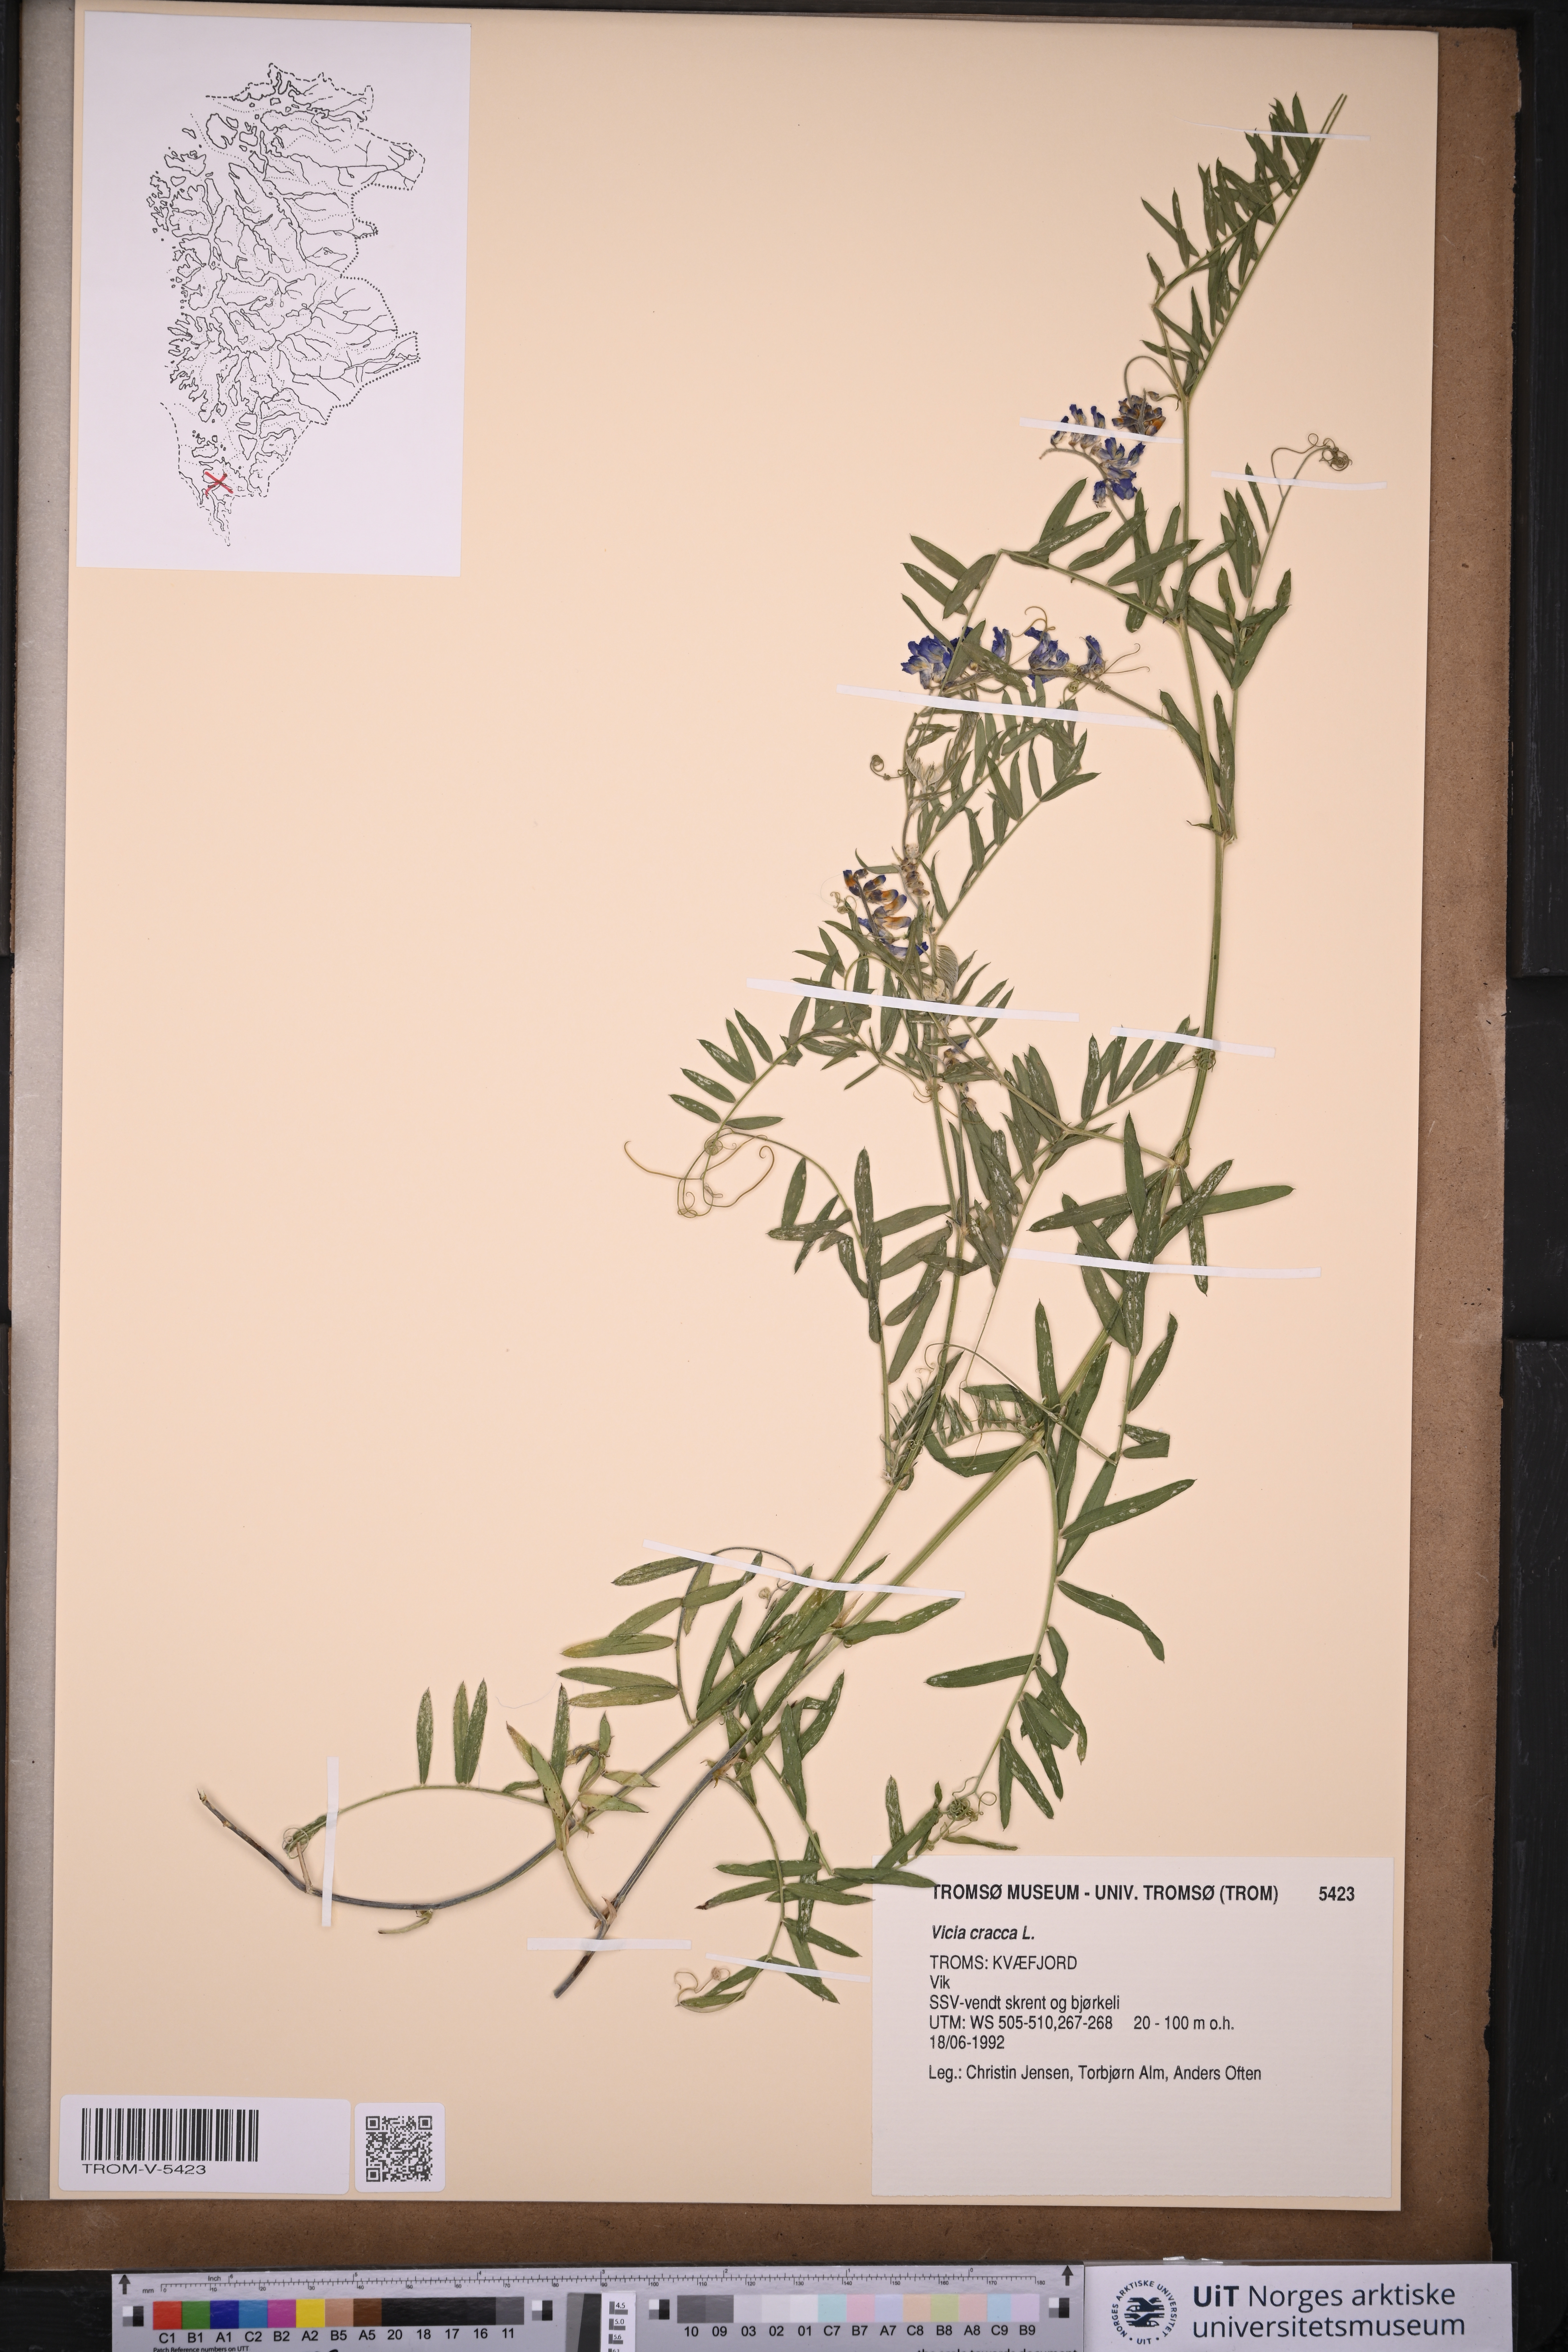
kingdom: Plantae
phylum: Tracheophyta
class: Magnoliopsida
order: Fabales
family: Fabaceae
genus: Vicia
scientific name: Vicia cracca
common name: Bird vetch
